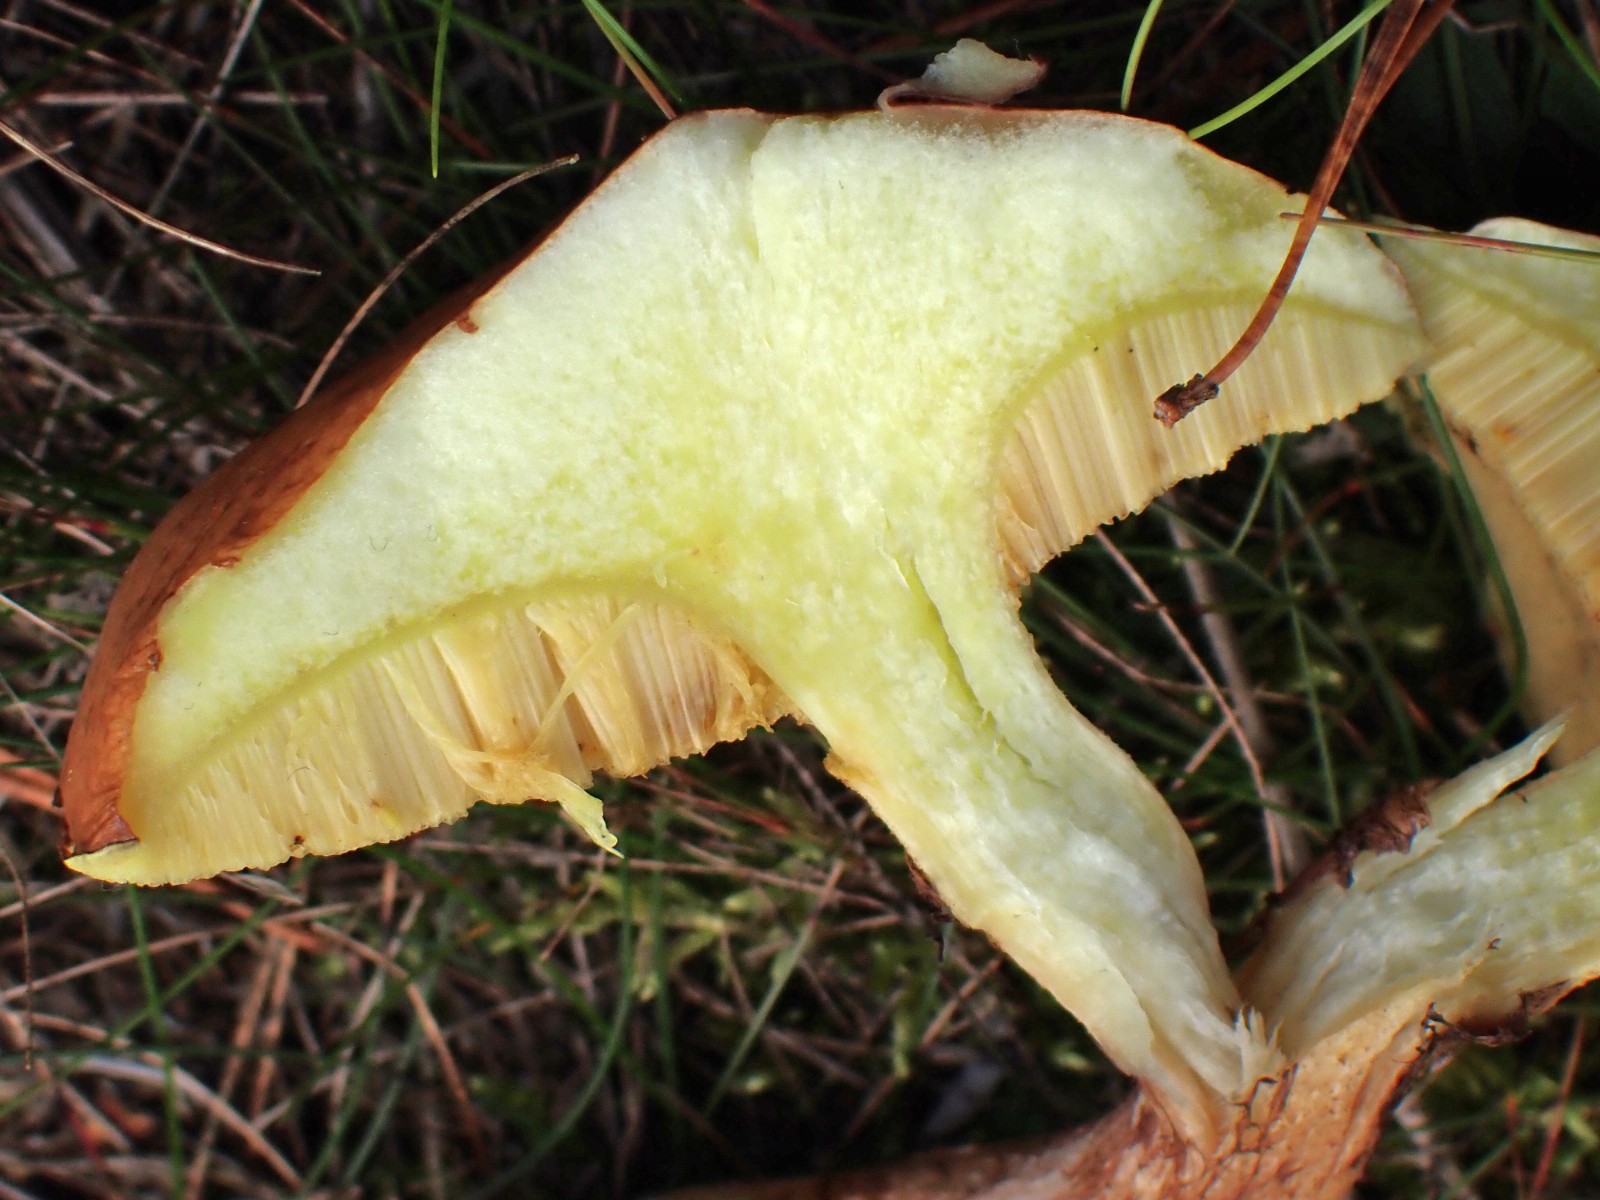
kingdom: Fungi
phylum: Basidiomycota
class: Agaricomycetes
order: Boletales
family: Suillaceae
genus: Suillus
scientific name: Suillus luteus
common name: brungul slimrørhat
